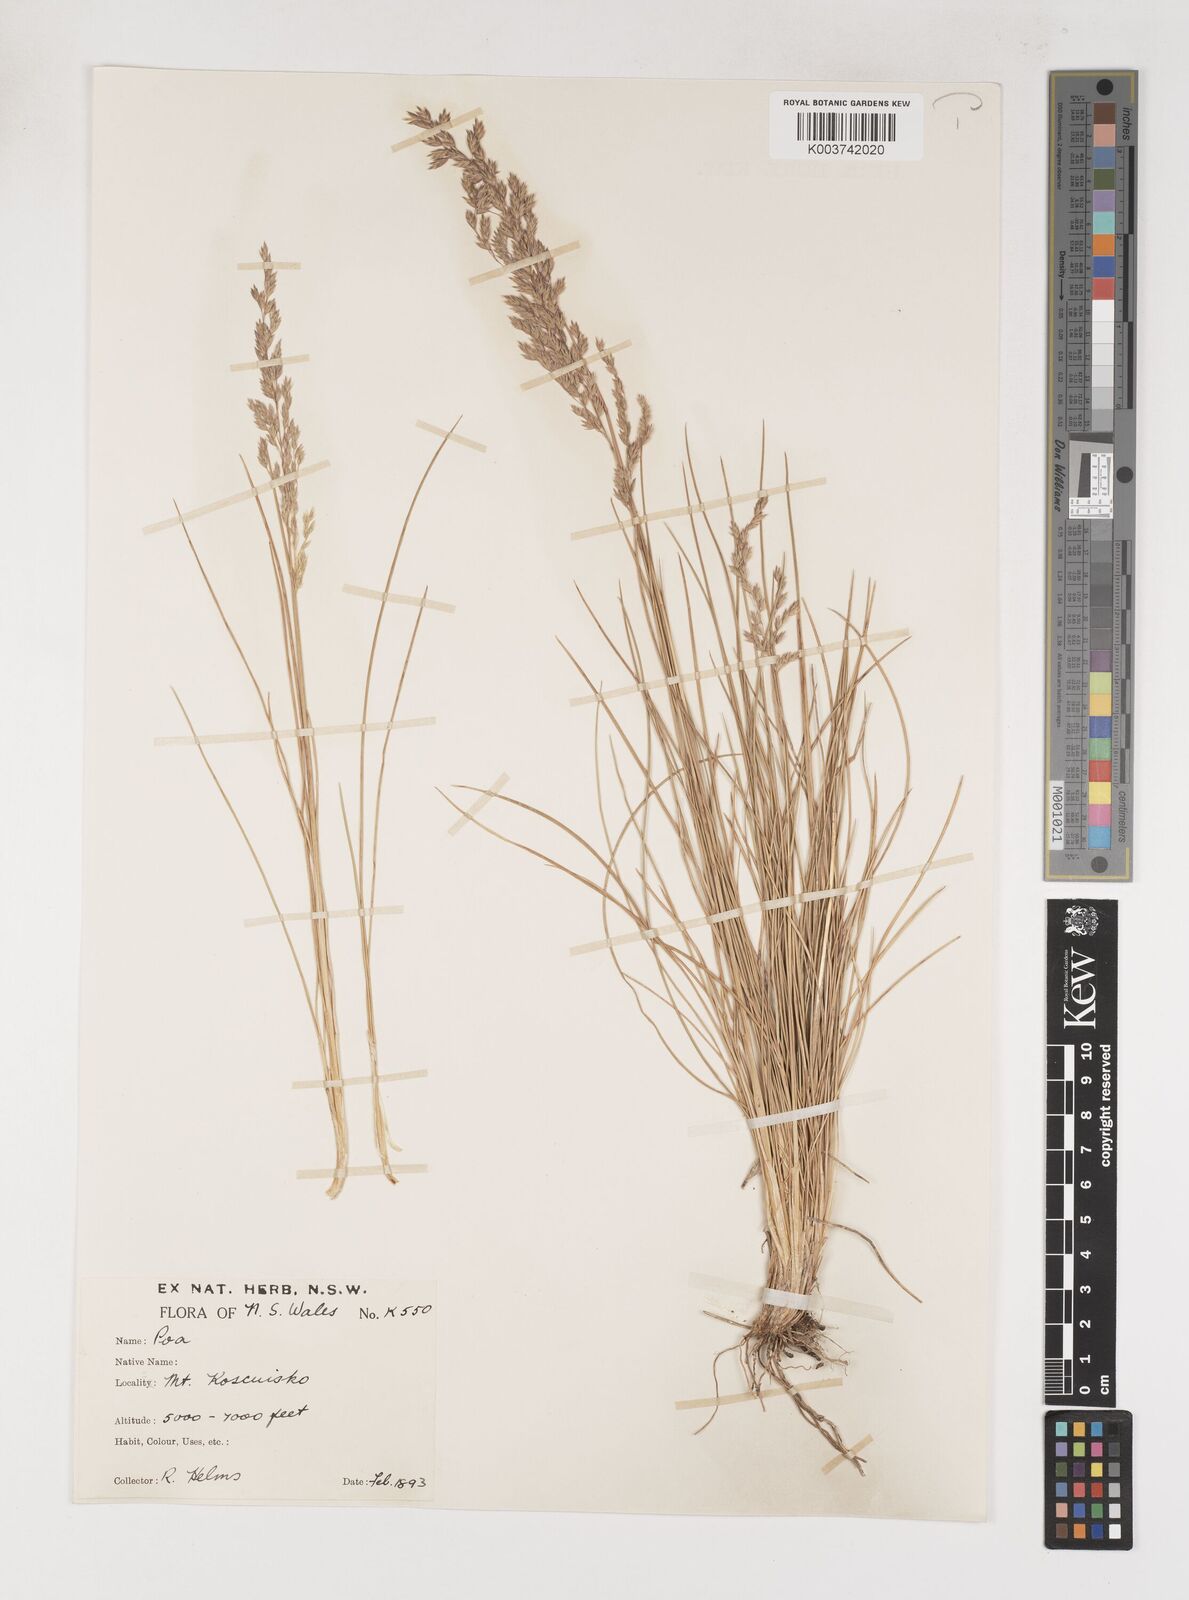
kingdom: Plantae
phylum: Tracheophyta
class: Liliopsida
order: Poales
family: Poaceae
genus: Poa
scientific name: Poa gunnii
